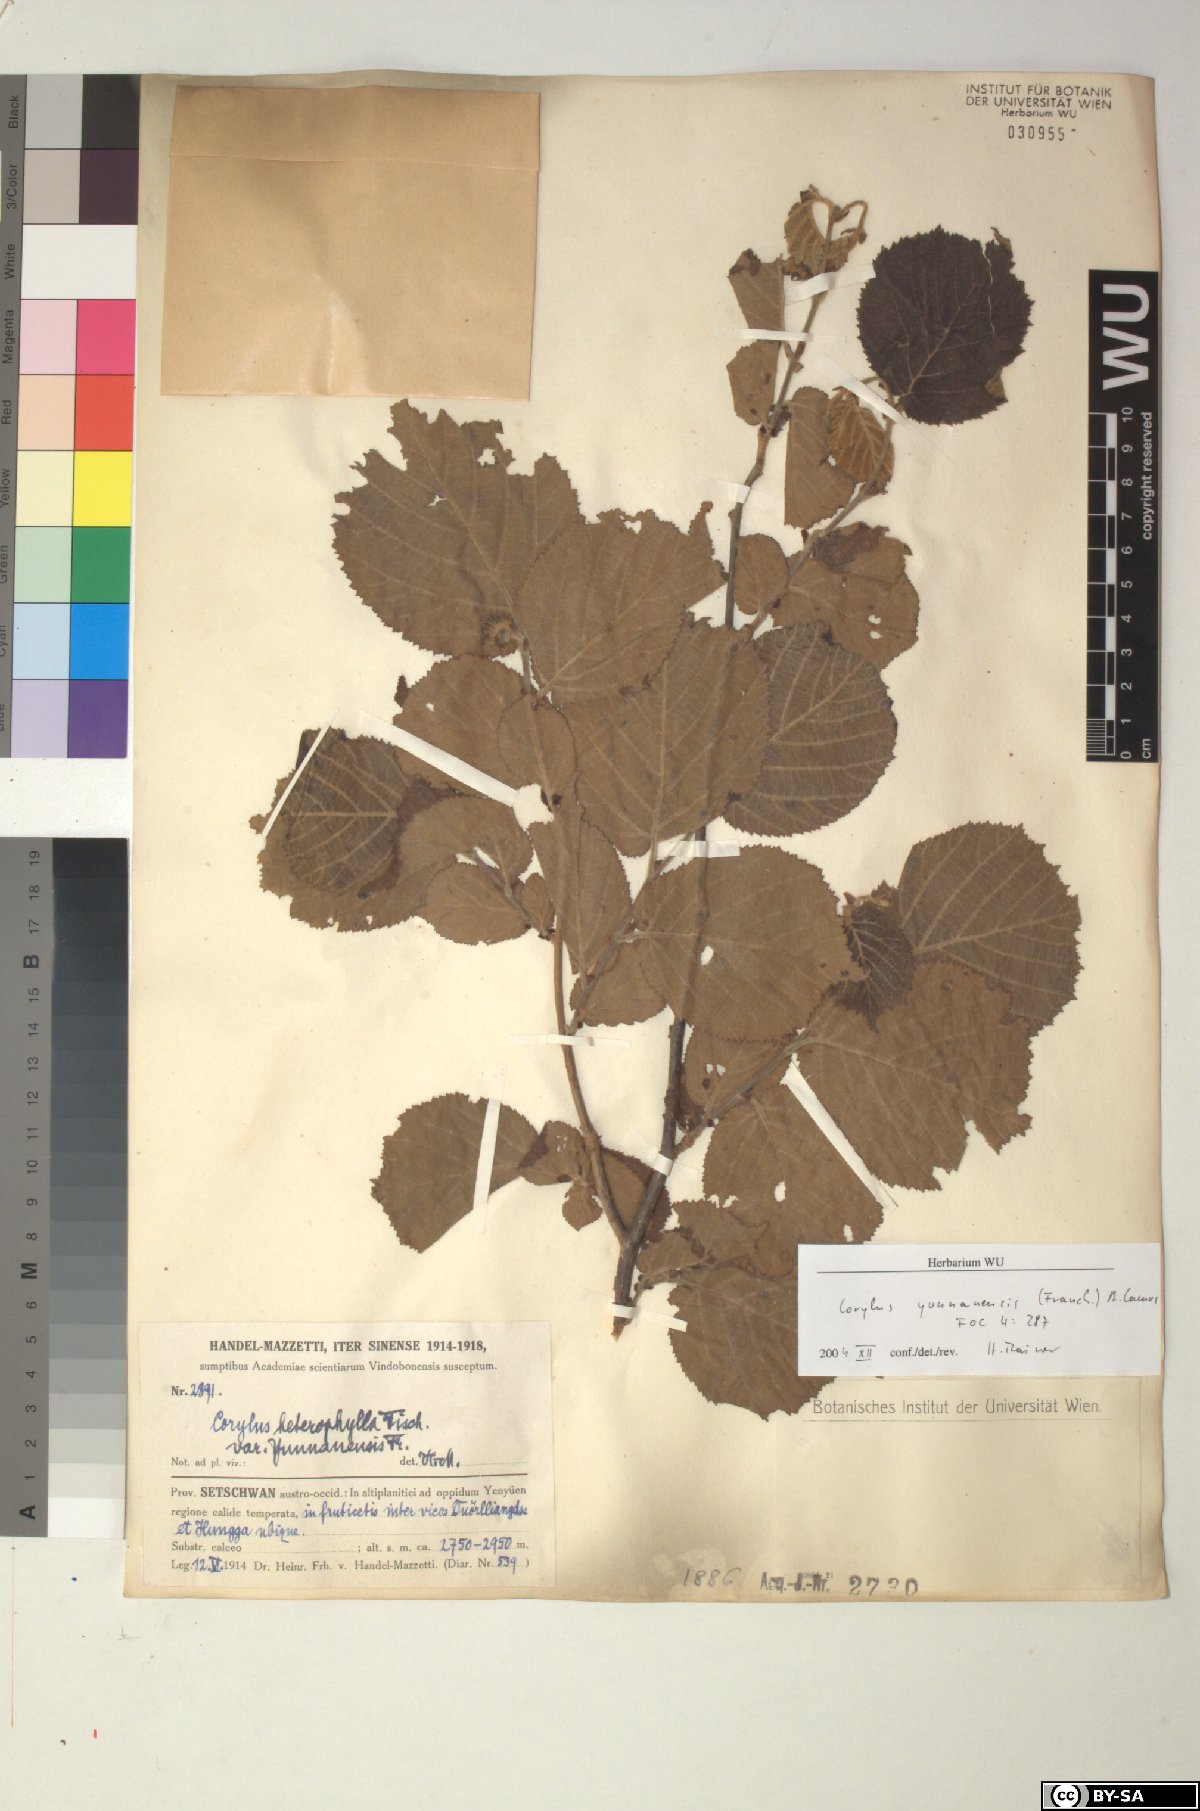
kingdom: Plantae
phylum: Tracheophyta
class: Magnoliopsida
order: Fagales
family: Betulaceae
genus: Corylus
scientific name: Corylus yunnanensis
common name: Yunnan hazel
